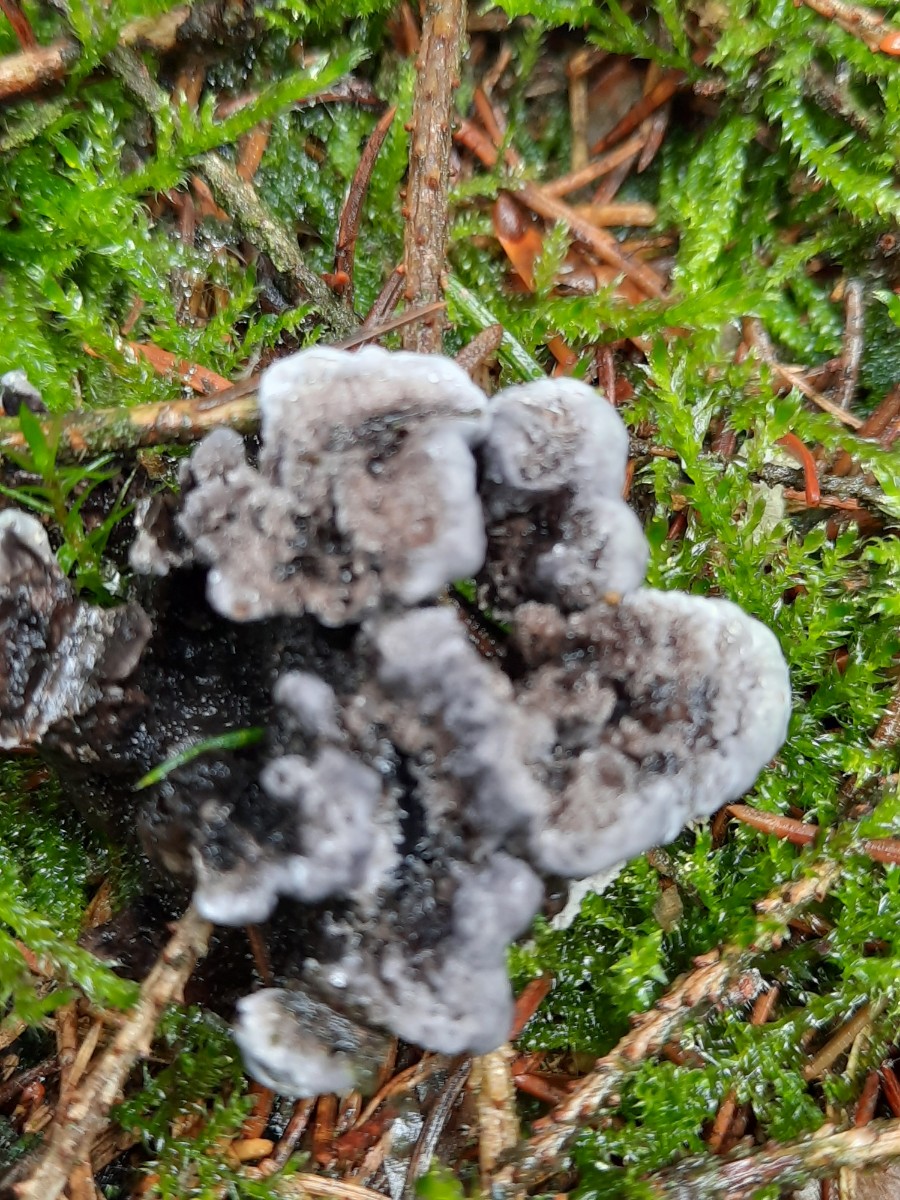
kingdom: Fungi
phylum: Basidiomycota
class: Agaricomycetes
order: Thelephorales
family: Thelephoraceae
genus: Phellodon
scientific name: Phellodon
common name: mørk duftpigsvamp
